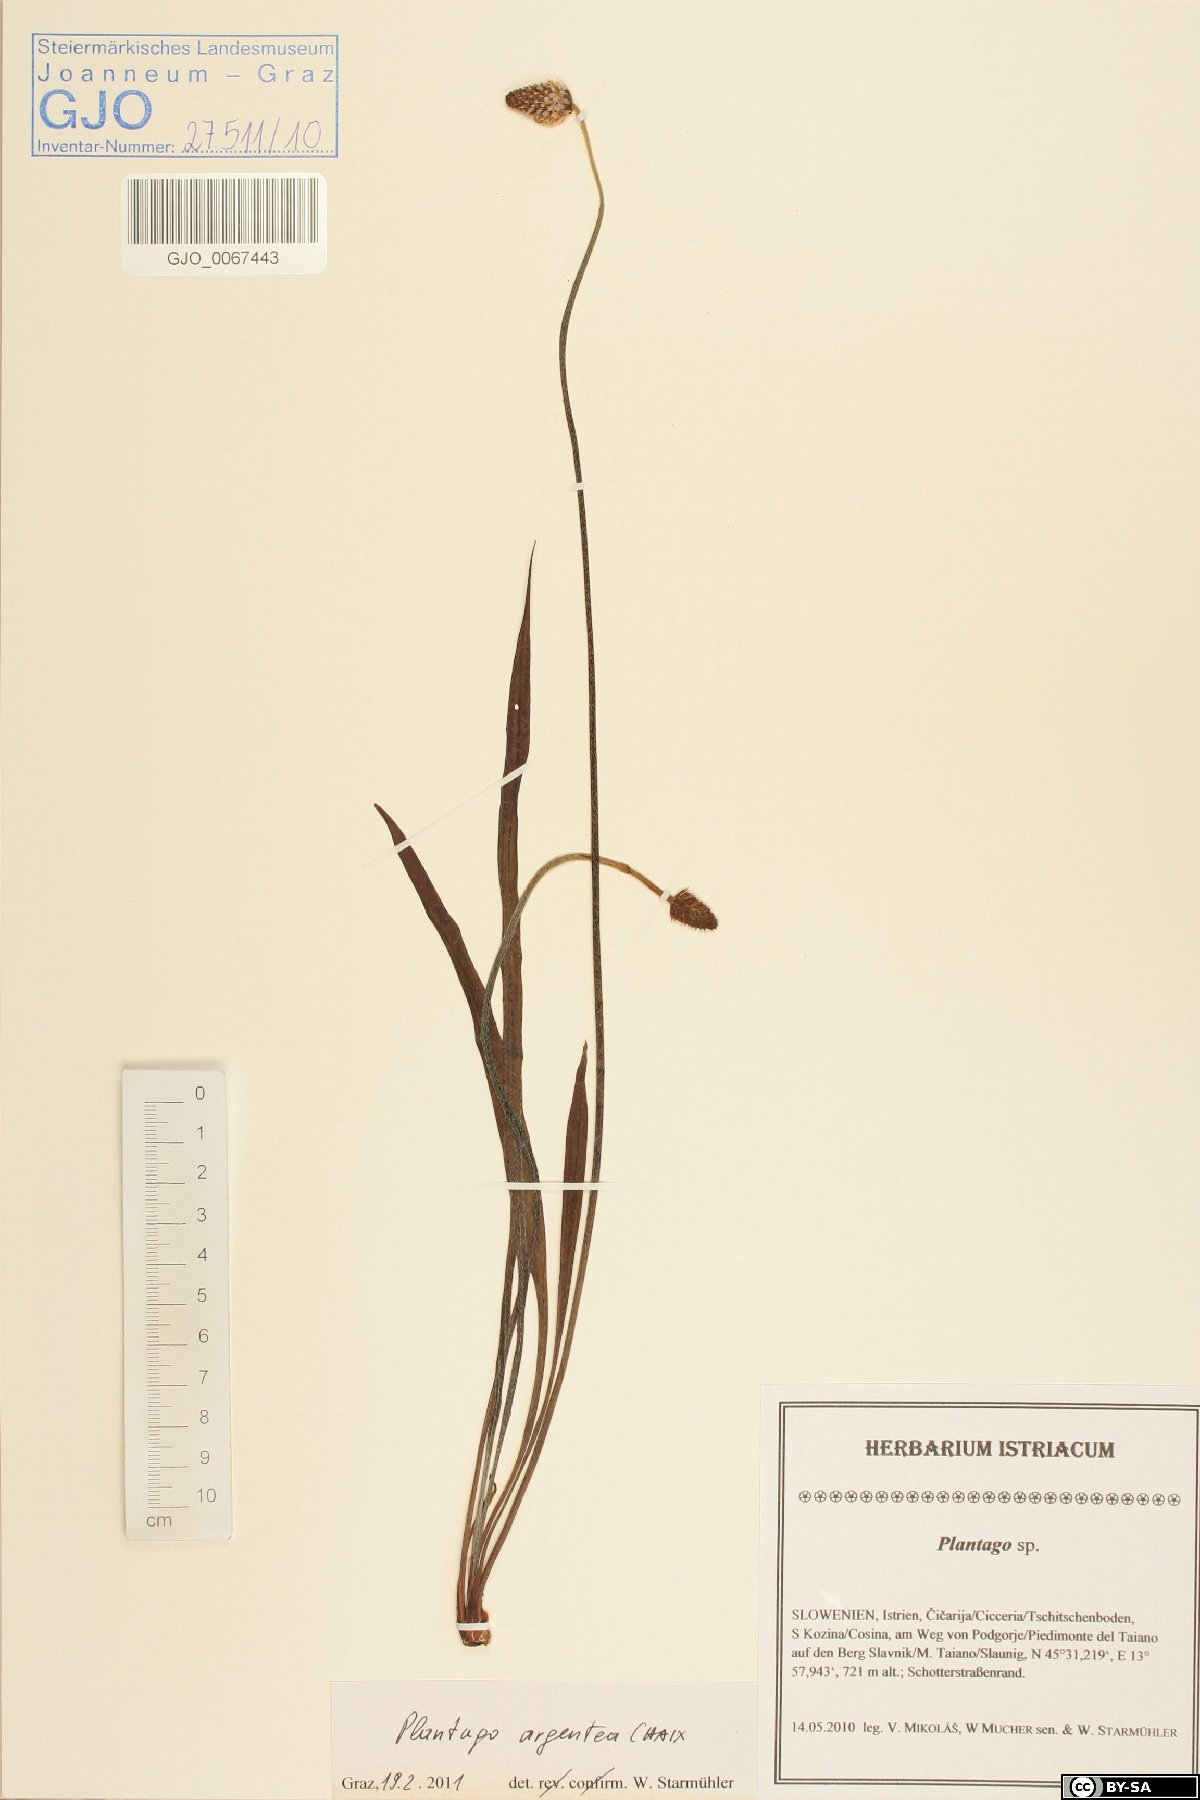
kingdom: Plantae
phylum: Tracheophyta
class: Magnoliopsida
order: Lamiales
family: Plantaginaceae
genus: Plantago
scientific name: Plantago argentea
